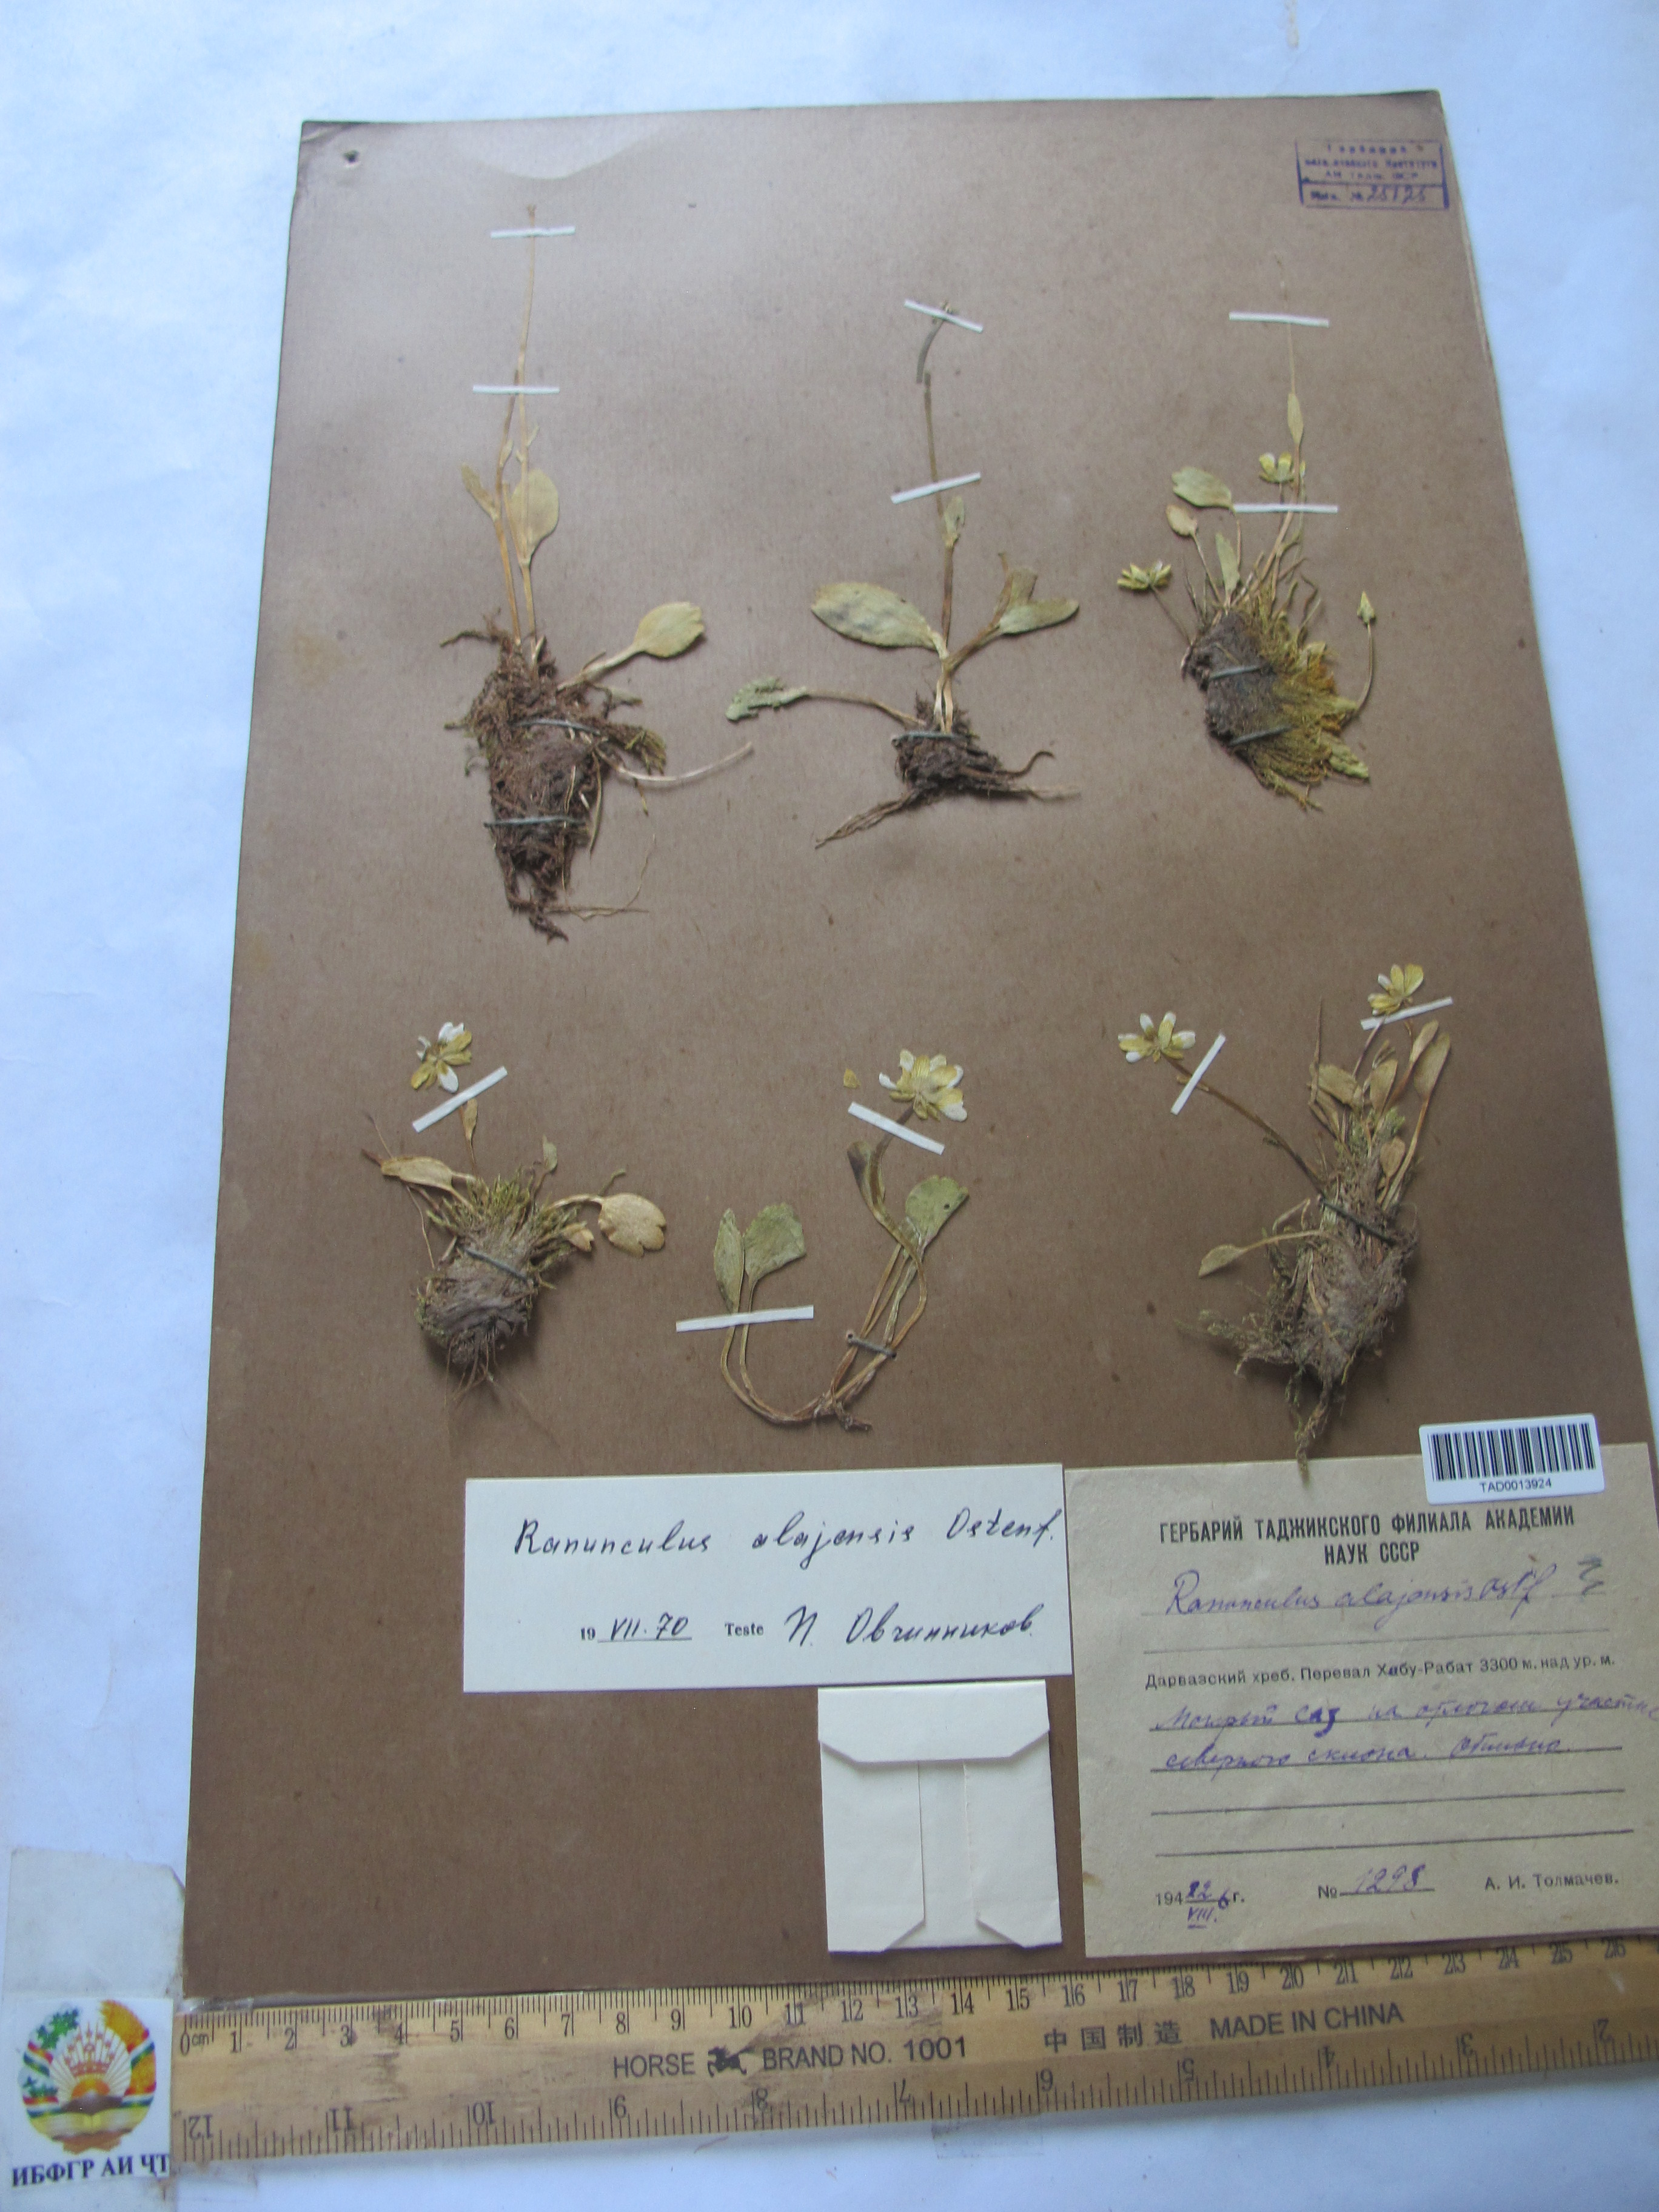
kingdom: Plantae
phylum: Tracheophyta
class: Magnoliopsida
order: Ranunculales
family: Ranunculaceae
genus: Ranunculus
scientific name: Ranunculus alaiensis
